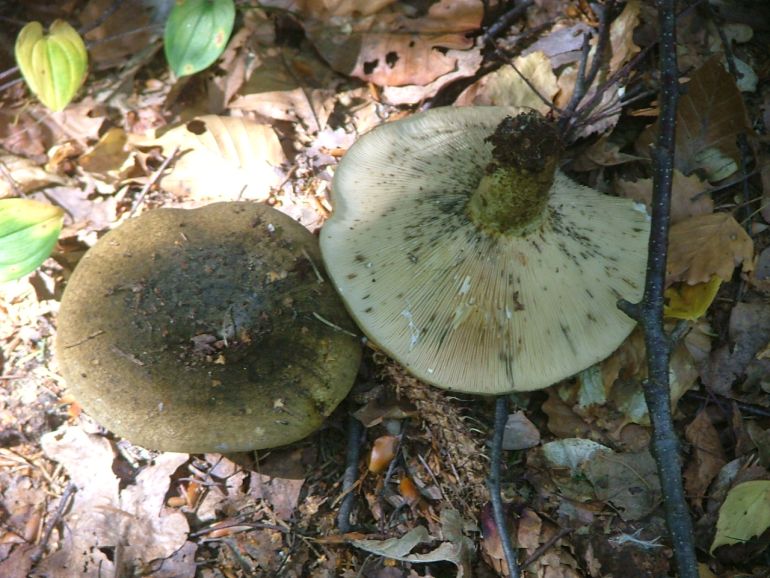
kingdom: Fungi
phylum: Basidiomycota
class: Agaricomycetes
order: Russulales
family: Russulaceae
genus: Lactarius
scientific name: Lactarius necator
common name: manddraber-mælkehat
